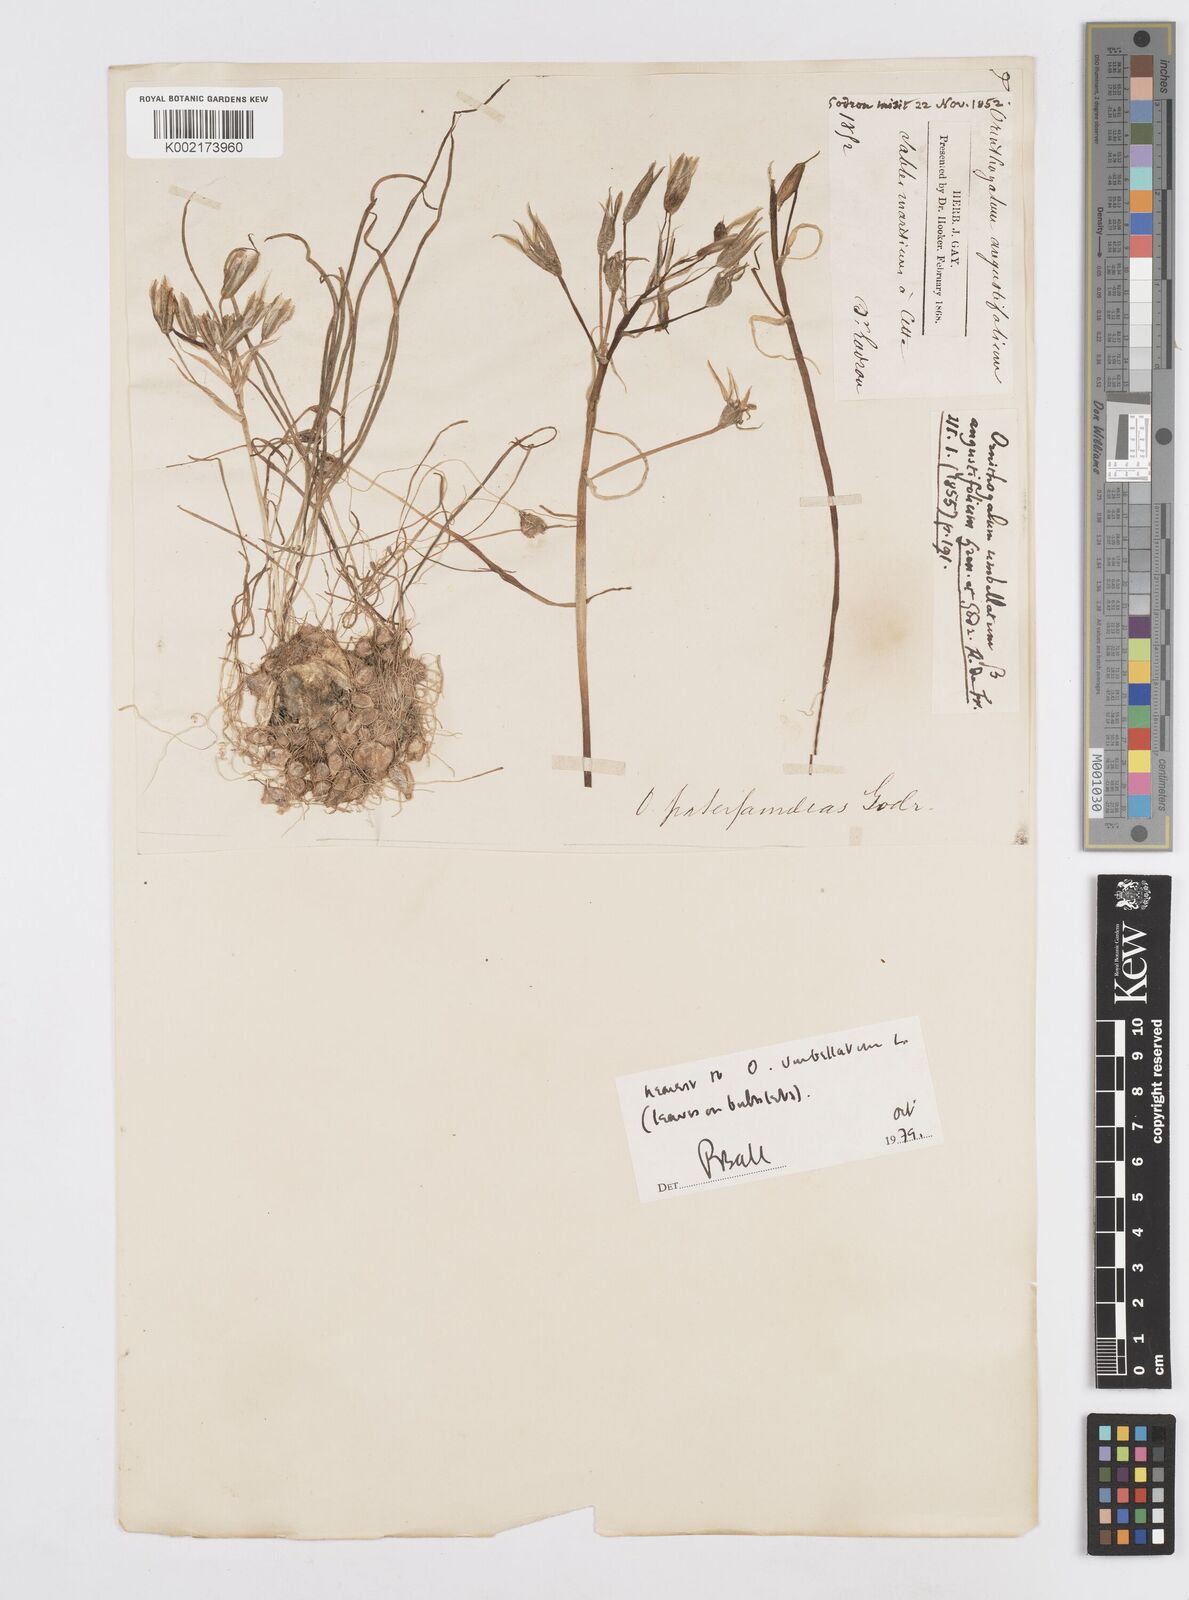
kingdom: Plantae
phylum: Tracheophyta
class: Liliopsida
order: Asparagales
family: Asparagaceae
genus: Ornithogalum
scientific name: Ornithogalum divergens
